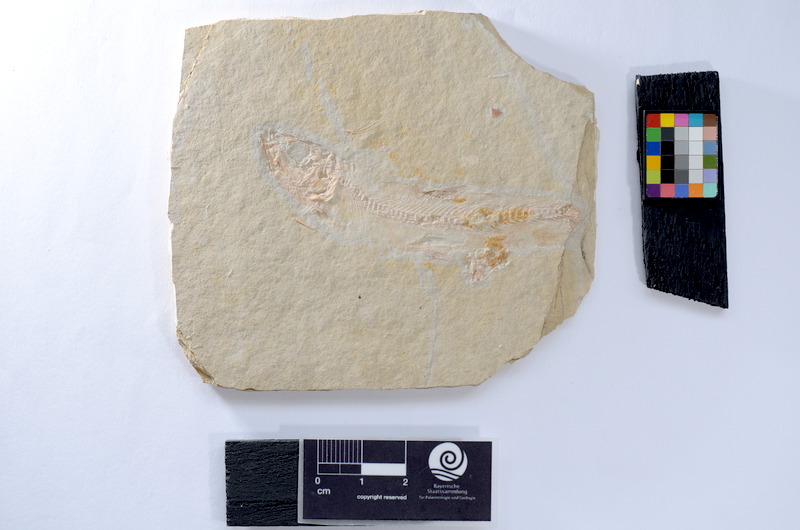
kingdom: Animalia
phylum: Chordata
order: Salmoniformes
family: Orthogonikleithridae
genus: Leptolepides
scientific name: Leptolepides
